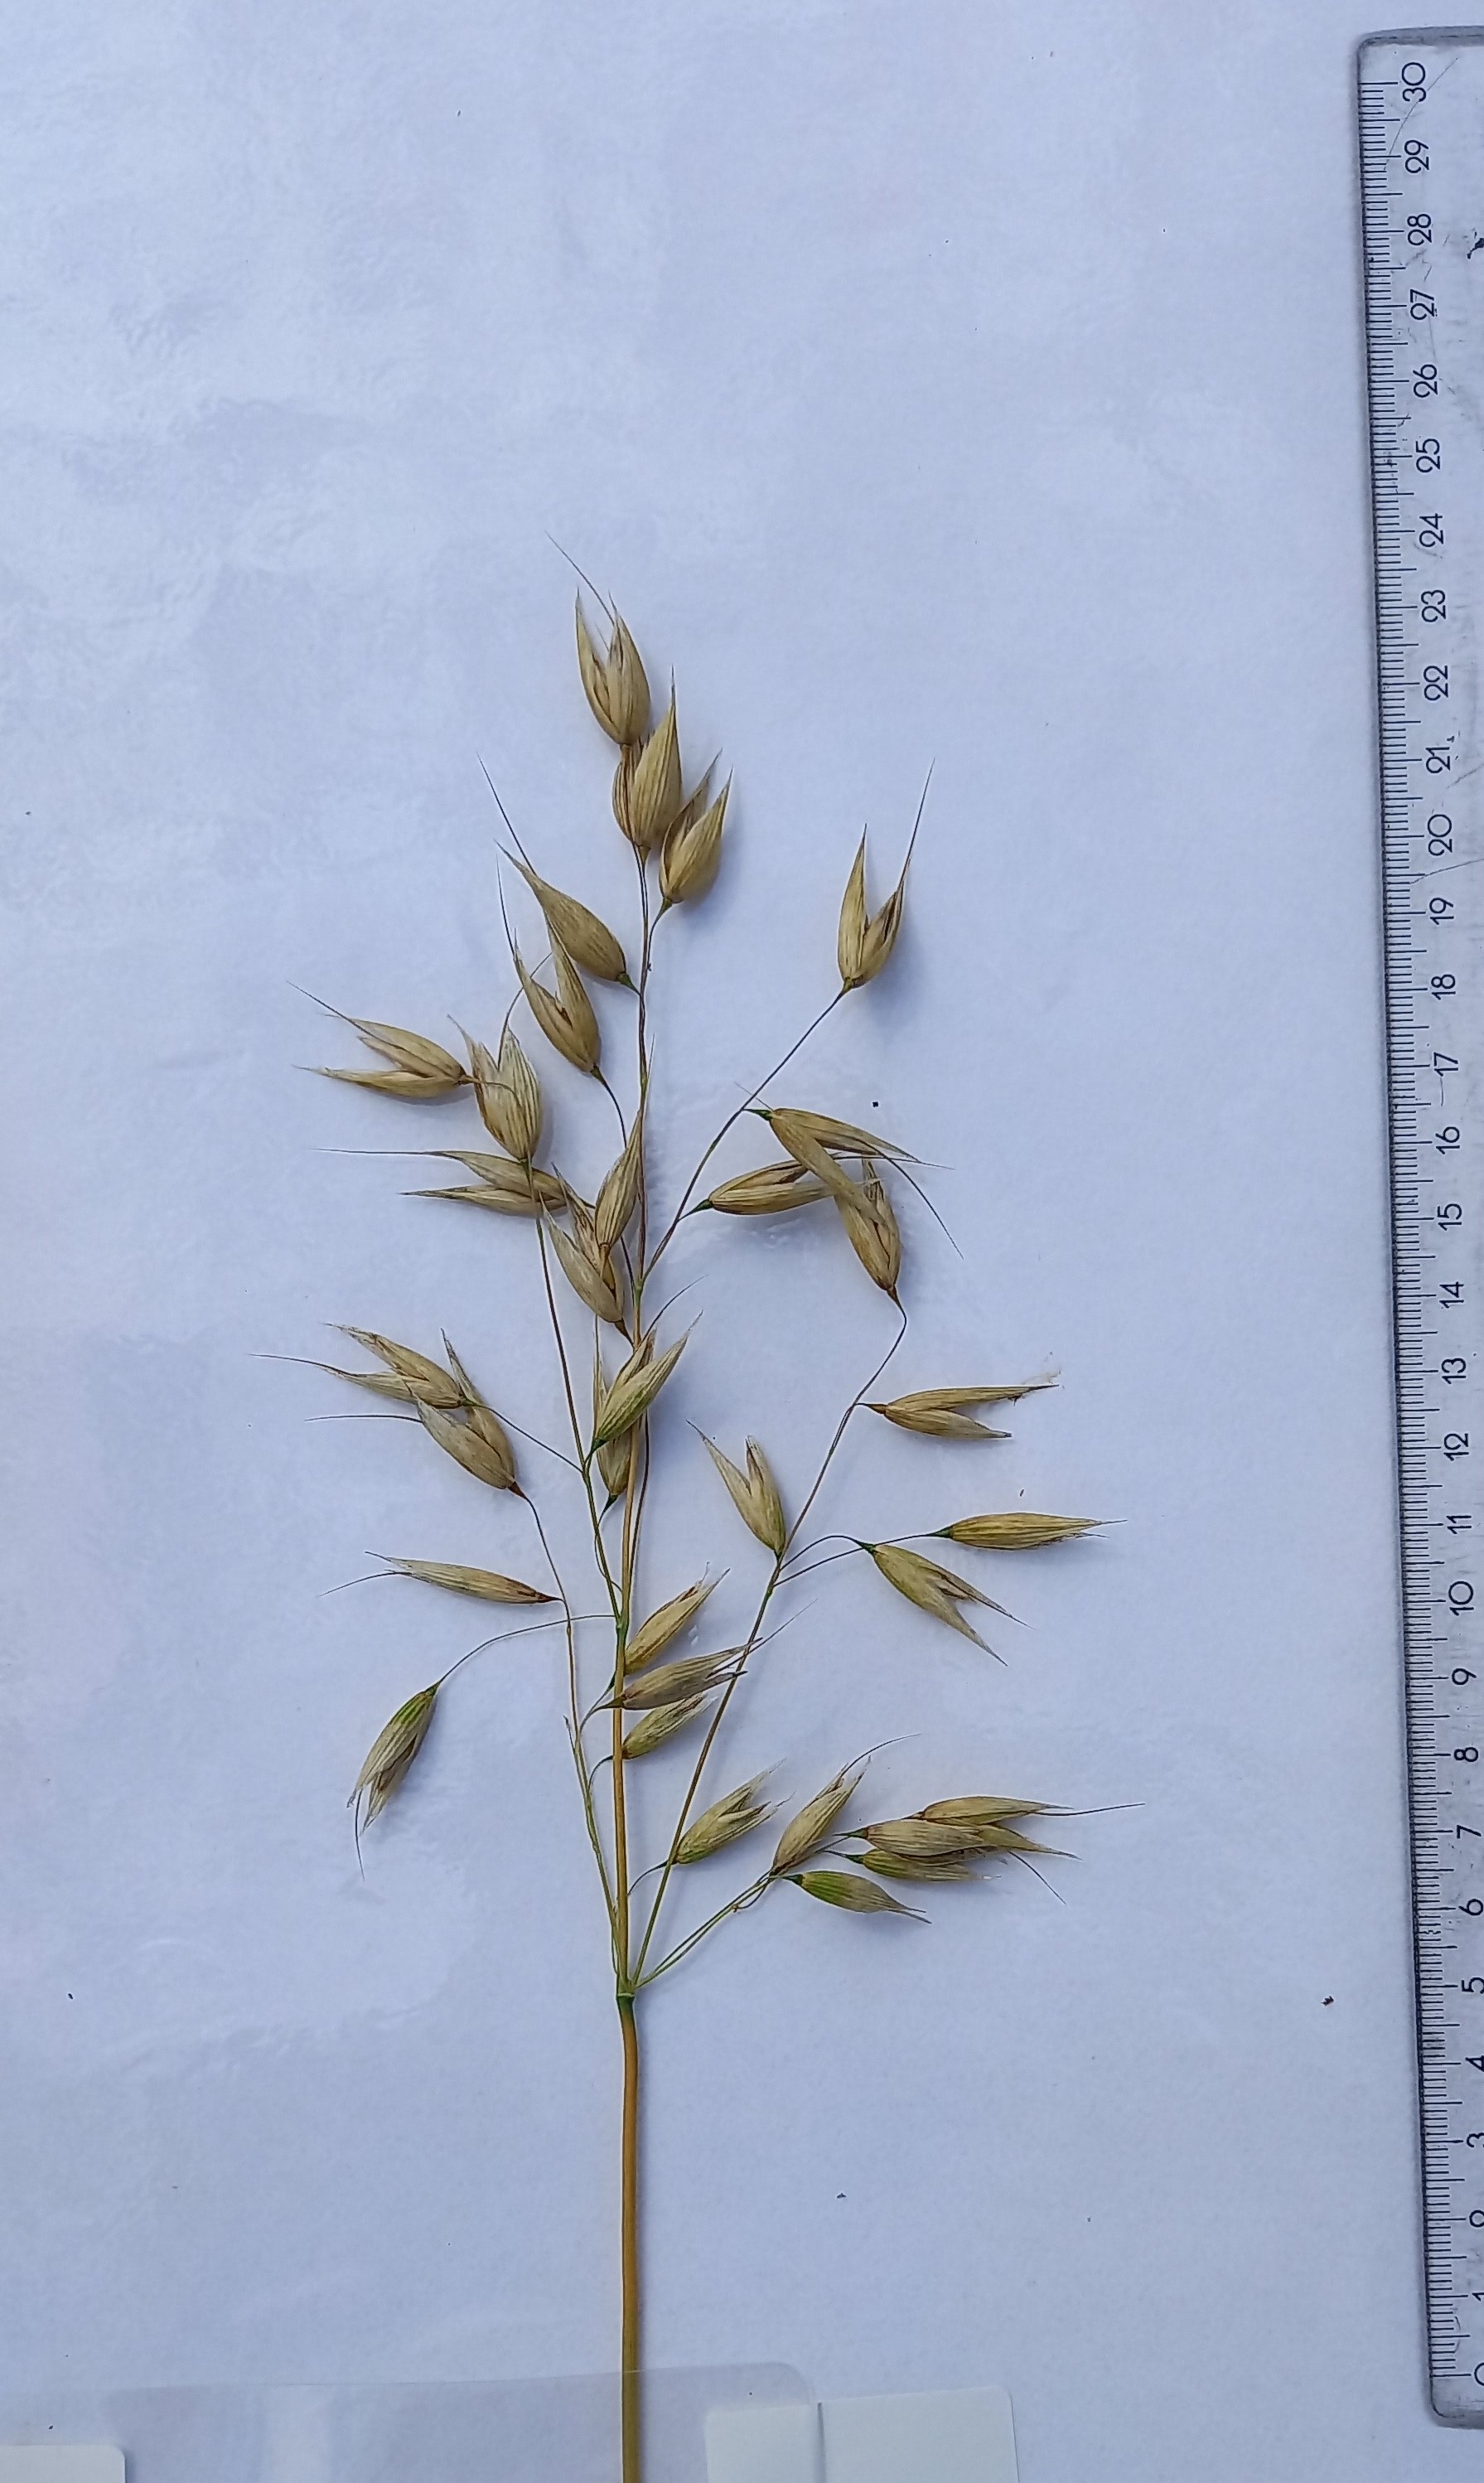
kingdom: Plantae
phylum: Tracheophyta
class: Liliopsida
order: Poales
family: Poaceae
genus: Avena
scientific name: Avena sativa
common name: Oat
